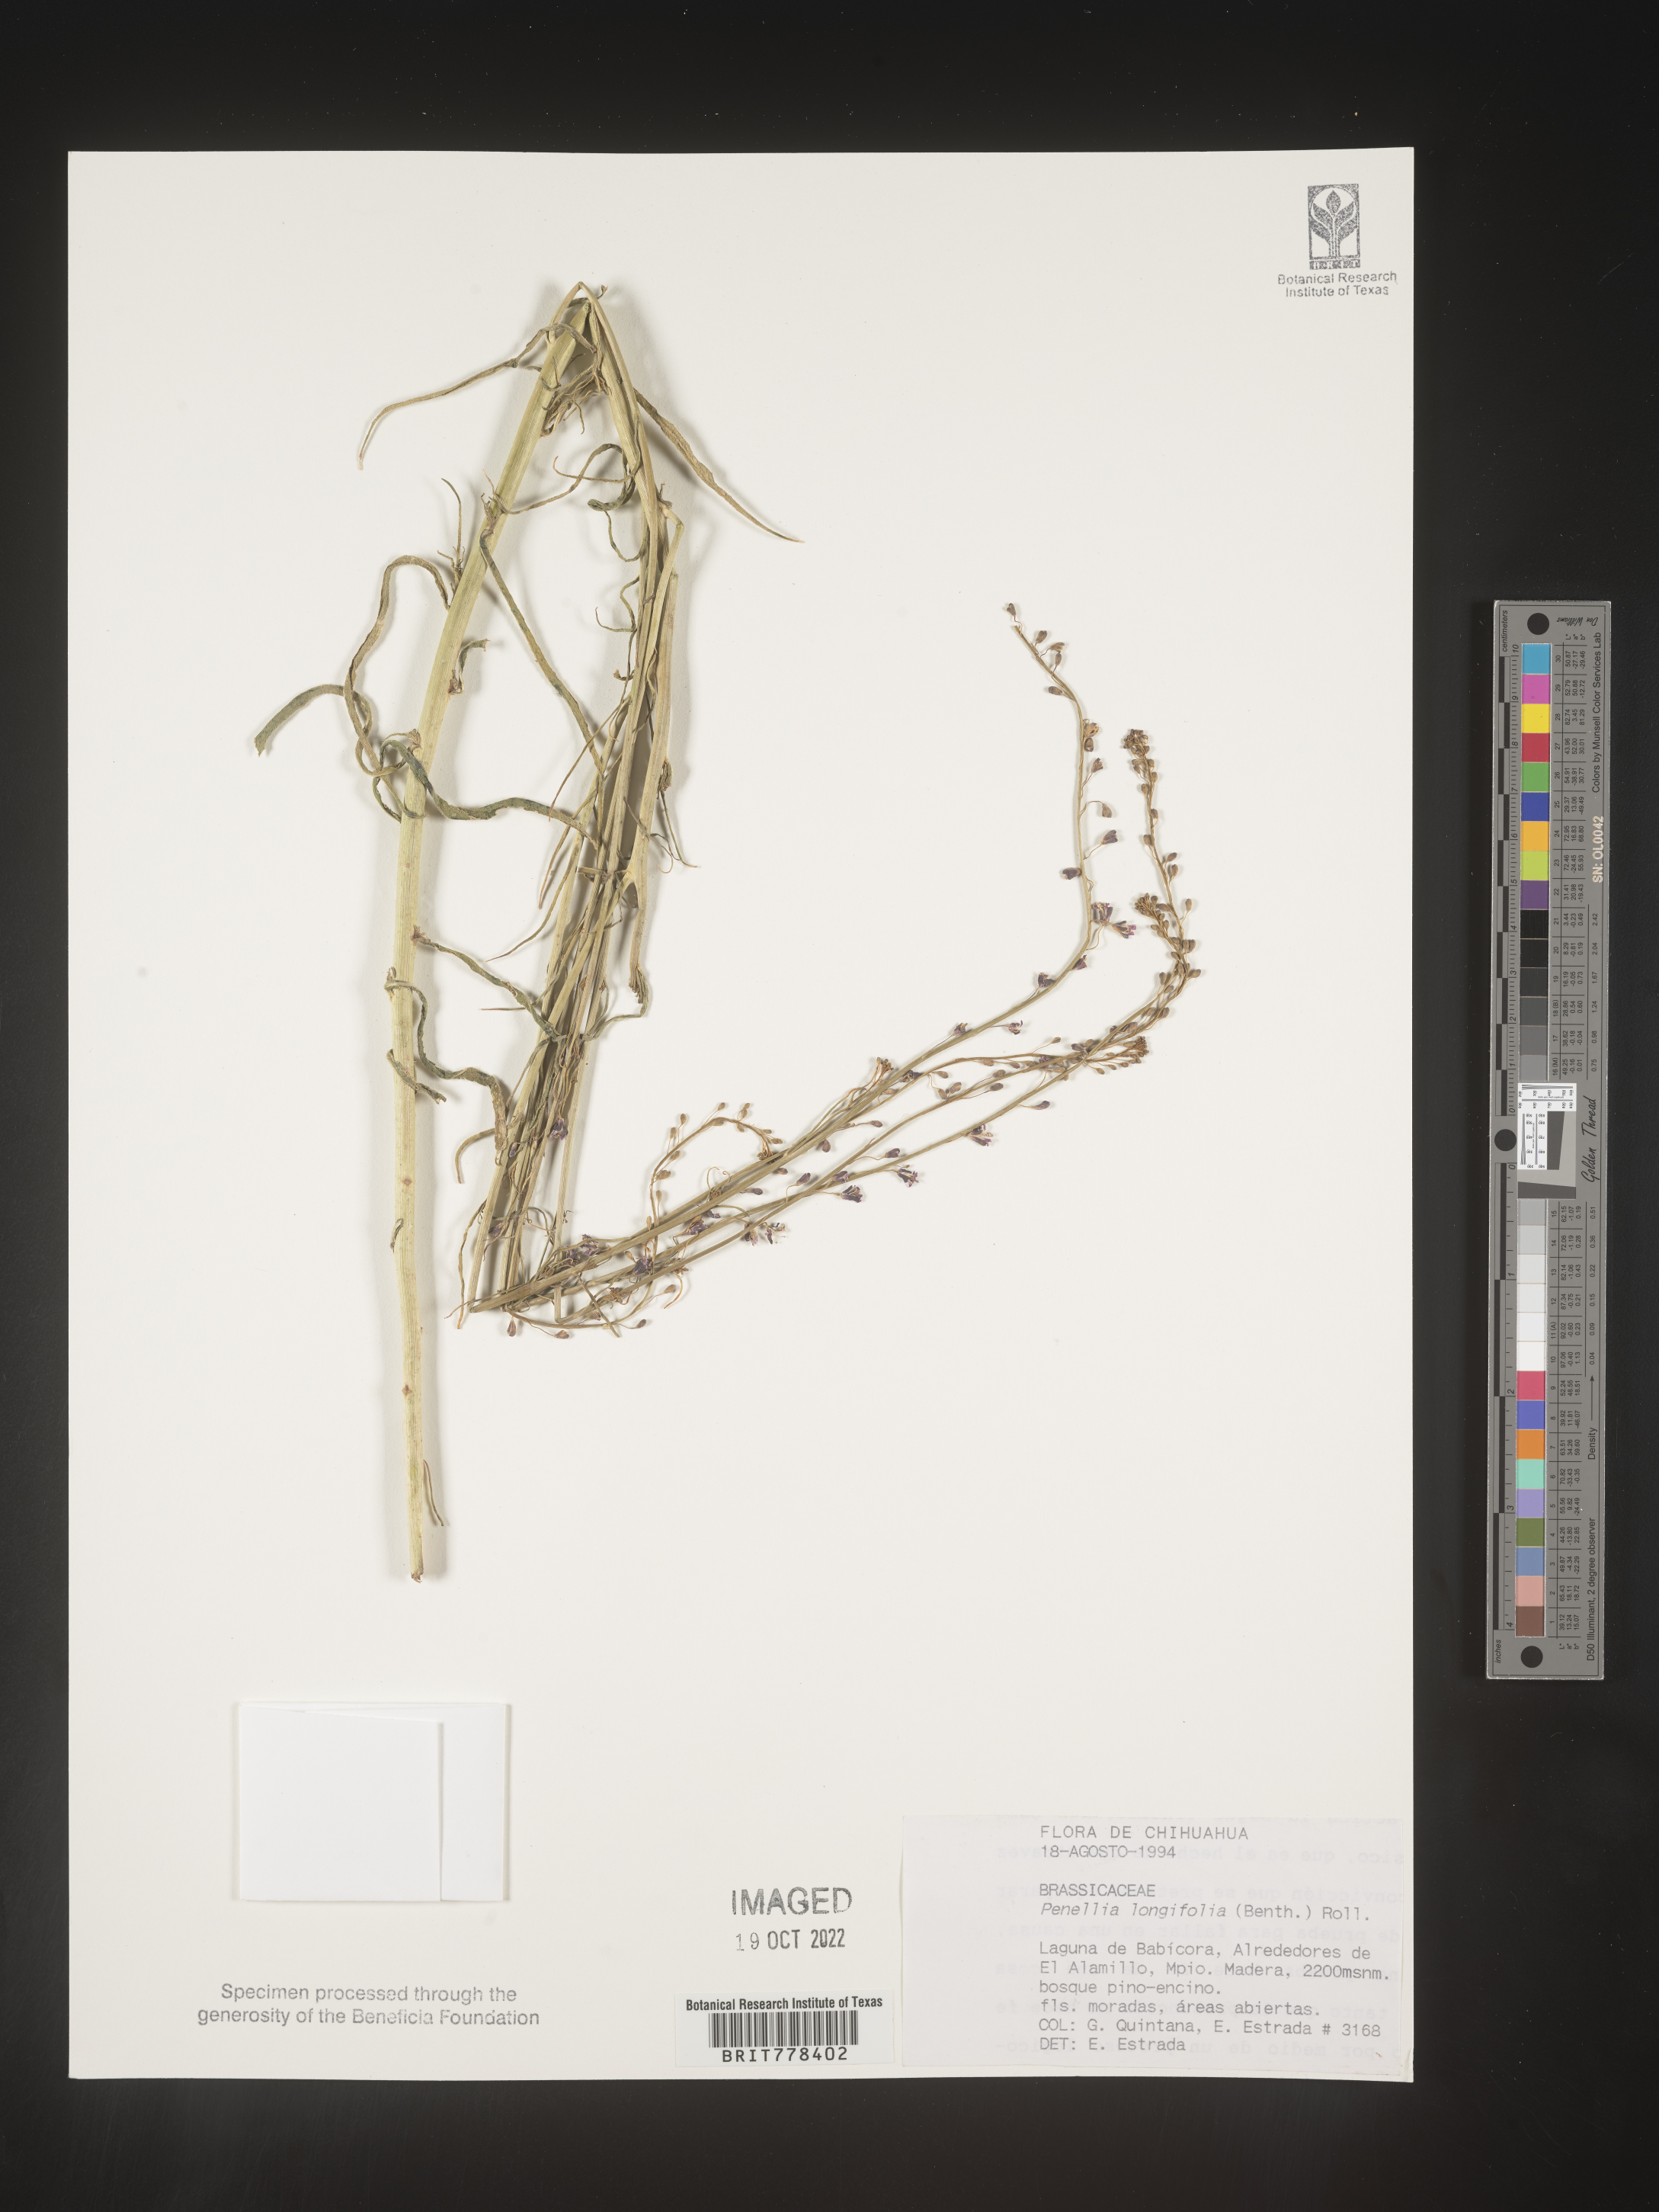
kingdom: Plantae
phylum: Tracheophyta
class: Magnoliopsida
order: Brassicales
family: Brassicaceae
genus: Pennellia
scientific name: Pennellia
